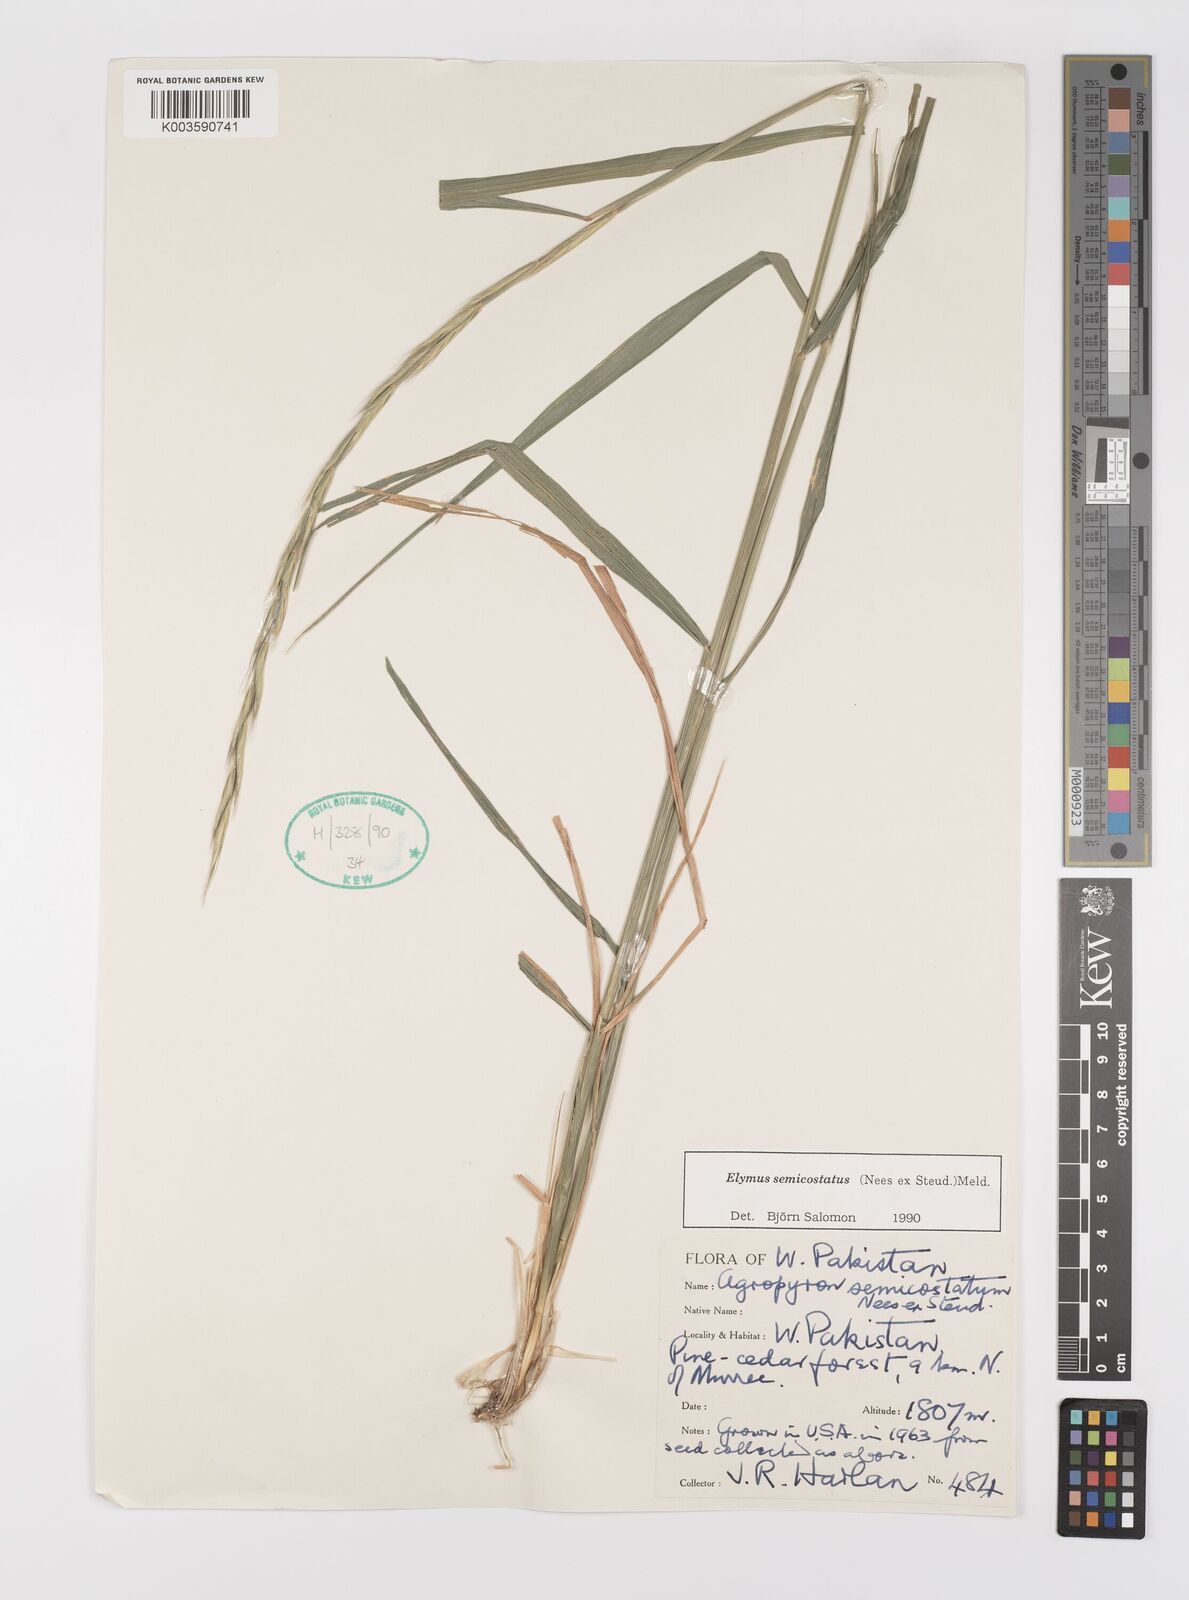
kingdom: Plantae
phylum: Tracheophyta
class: Liliopsida
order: Poales
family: Poaceae
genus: Elymus
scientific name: Elymus semicostatus
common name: Drooping wildrye
